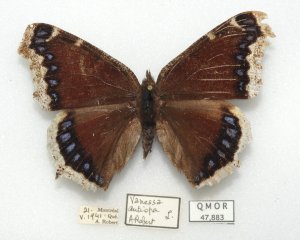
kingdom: Animalia
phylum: Arthropoda
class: Insecta
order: Lepidoptera
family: Nymphalidae
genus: Nymphalis
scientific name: Nymphalis antiopa
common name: Mourning Cloak
